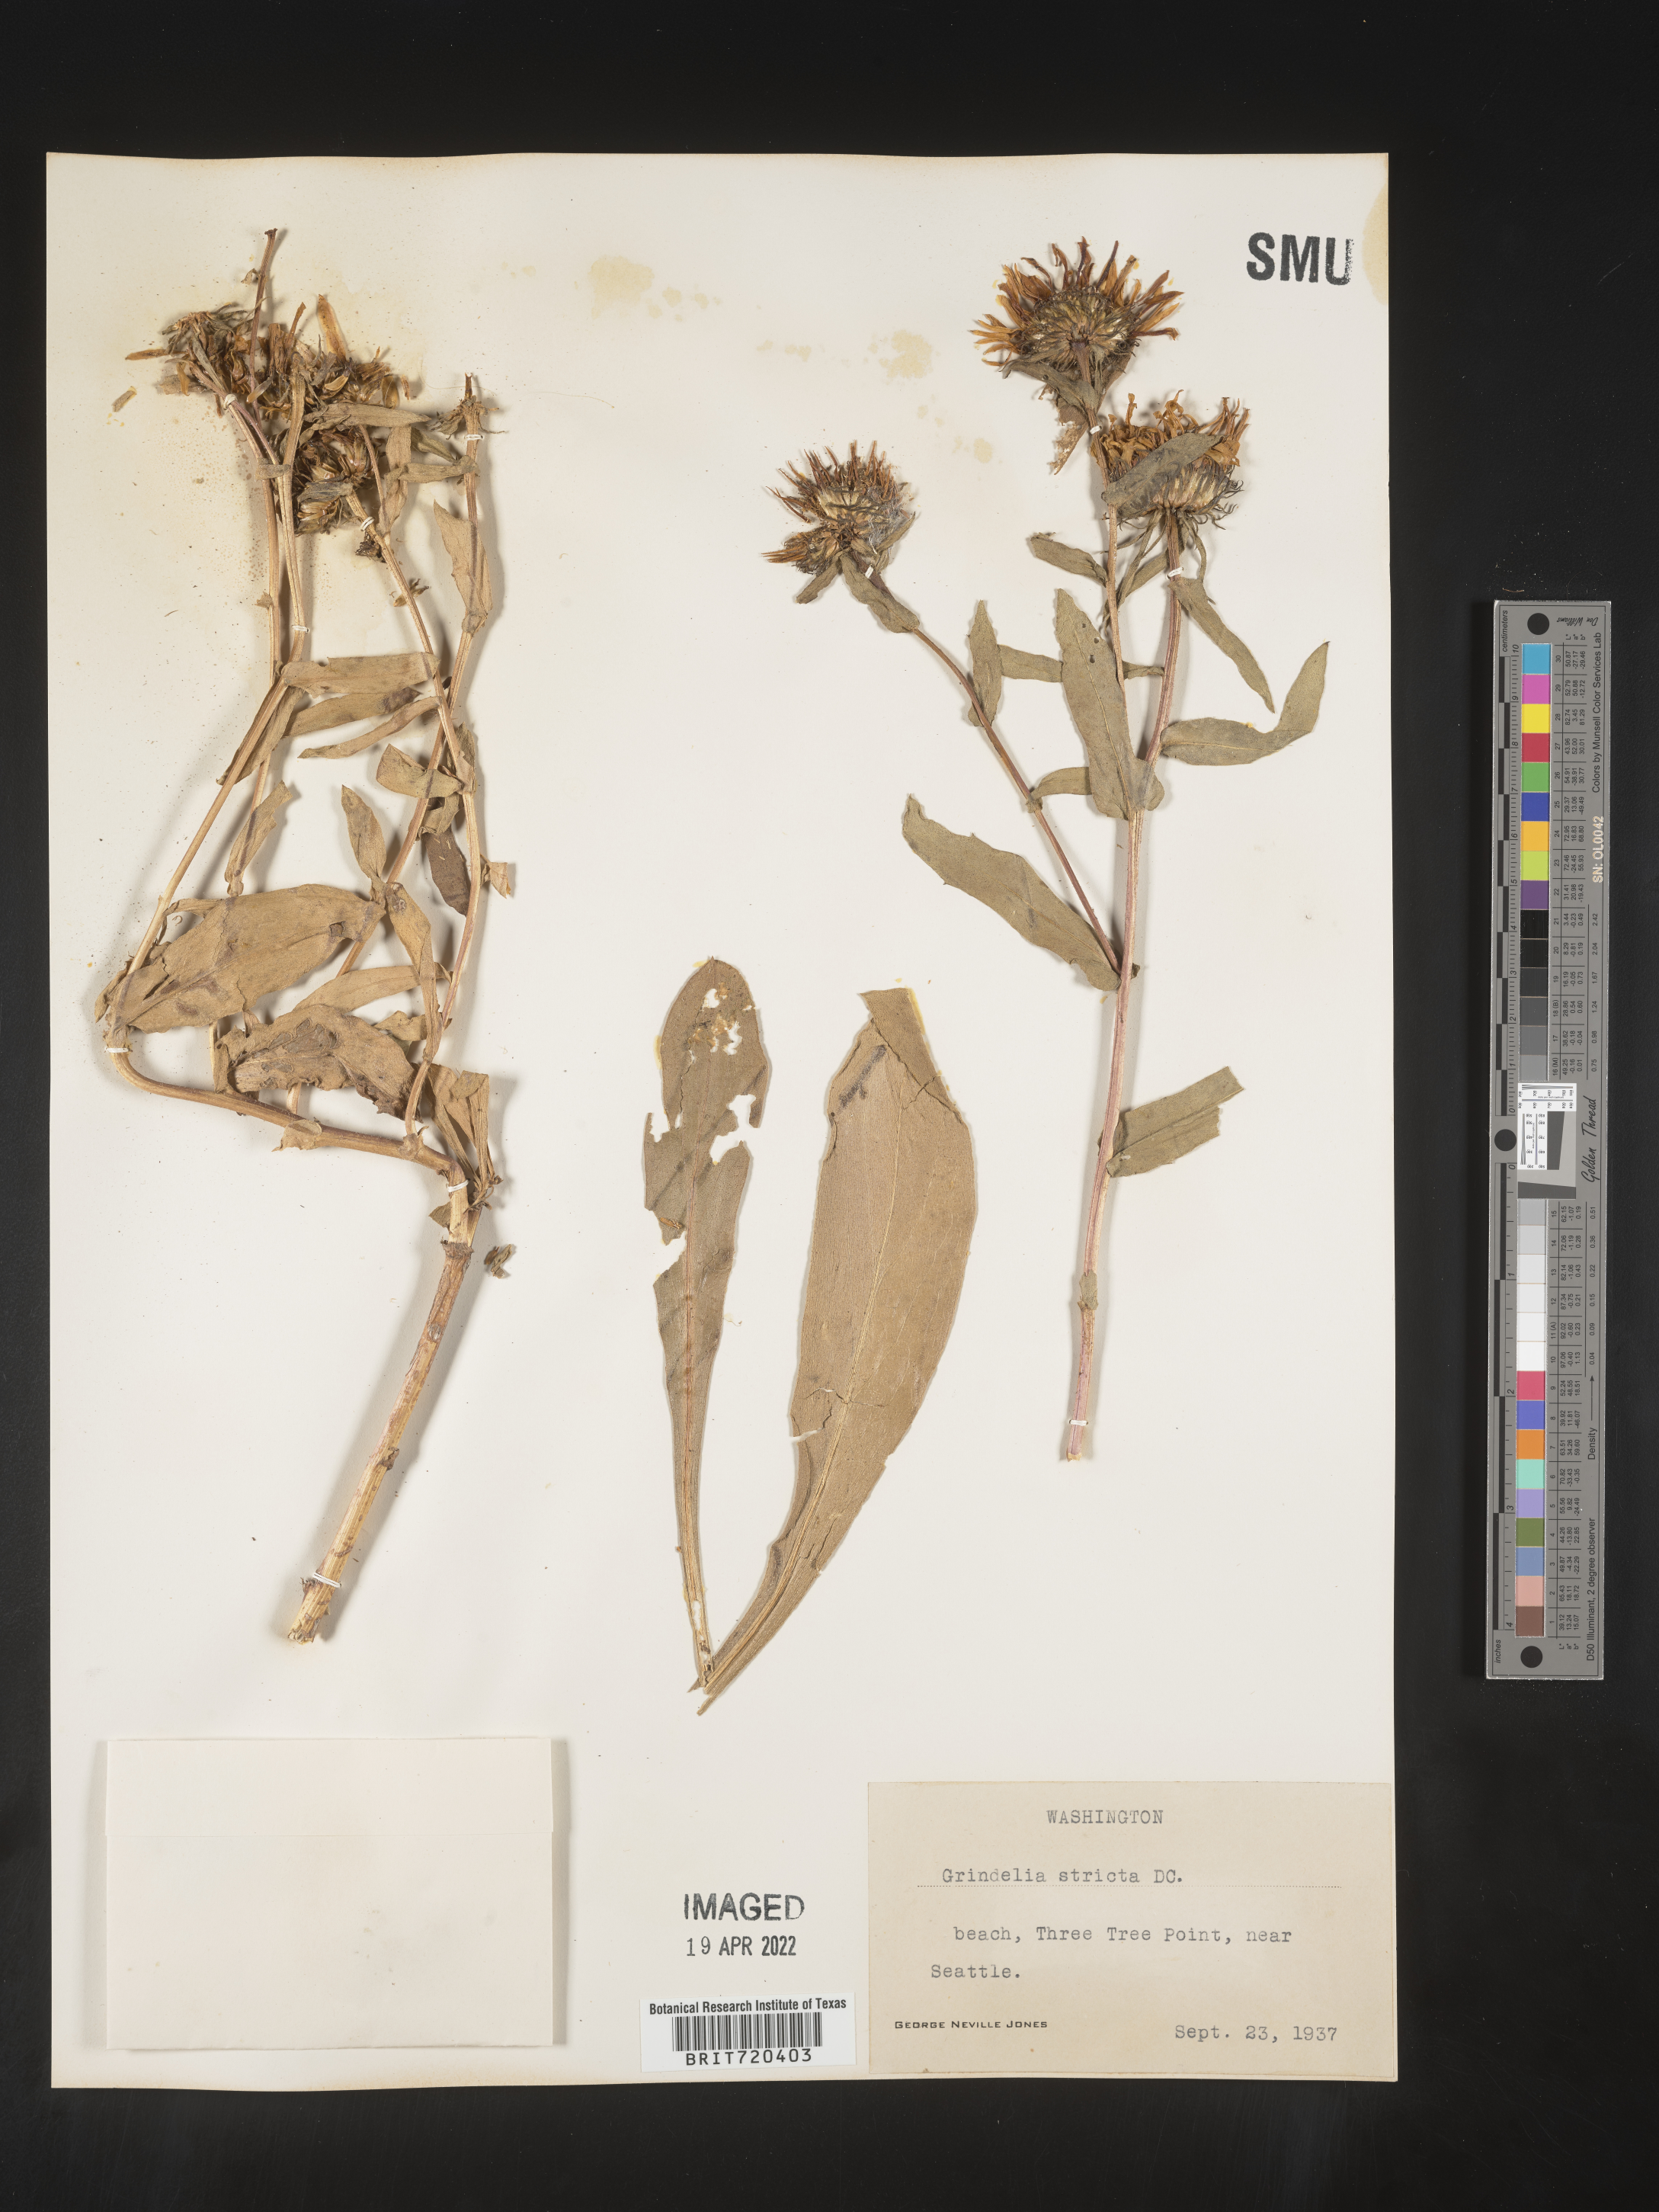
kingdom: Plantae
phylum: Tracheophyta
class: Magnoliopsida
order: Asterales
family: Asteraceae
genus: Grindelia
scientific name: Grindelia hirsutula
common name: Hairy gumweed
